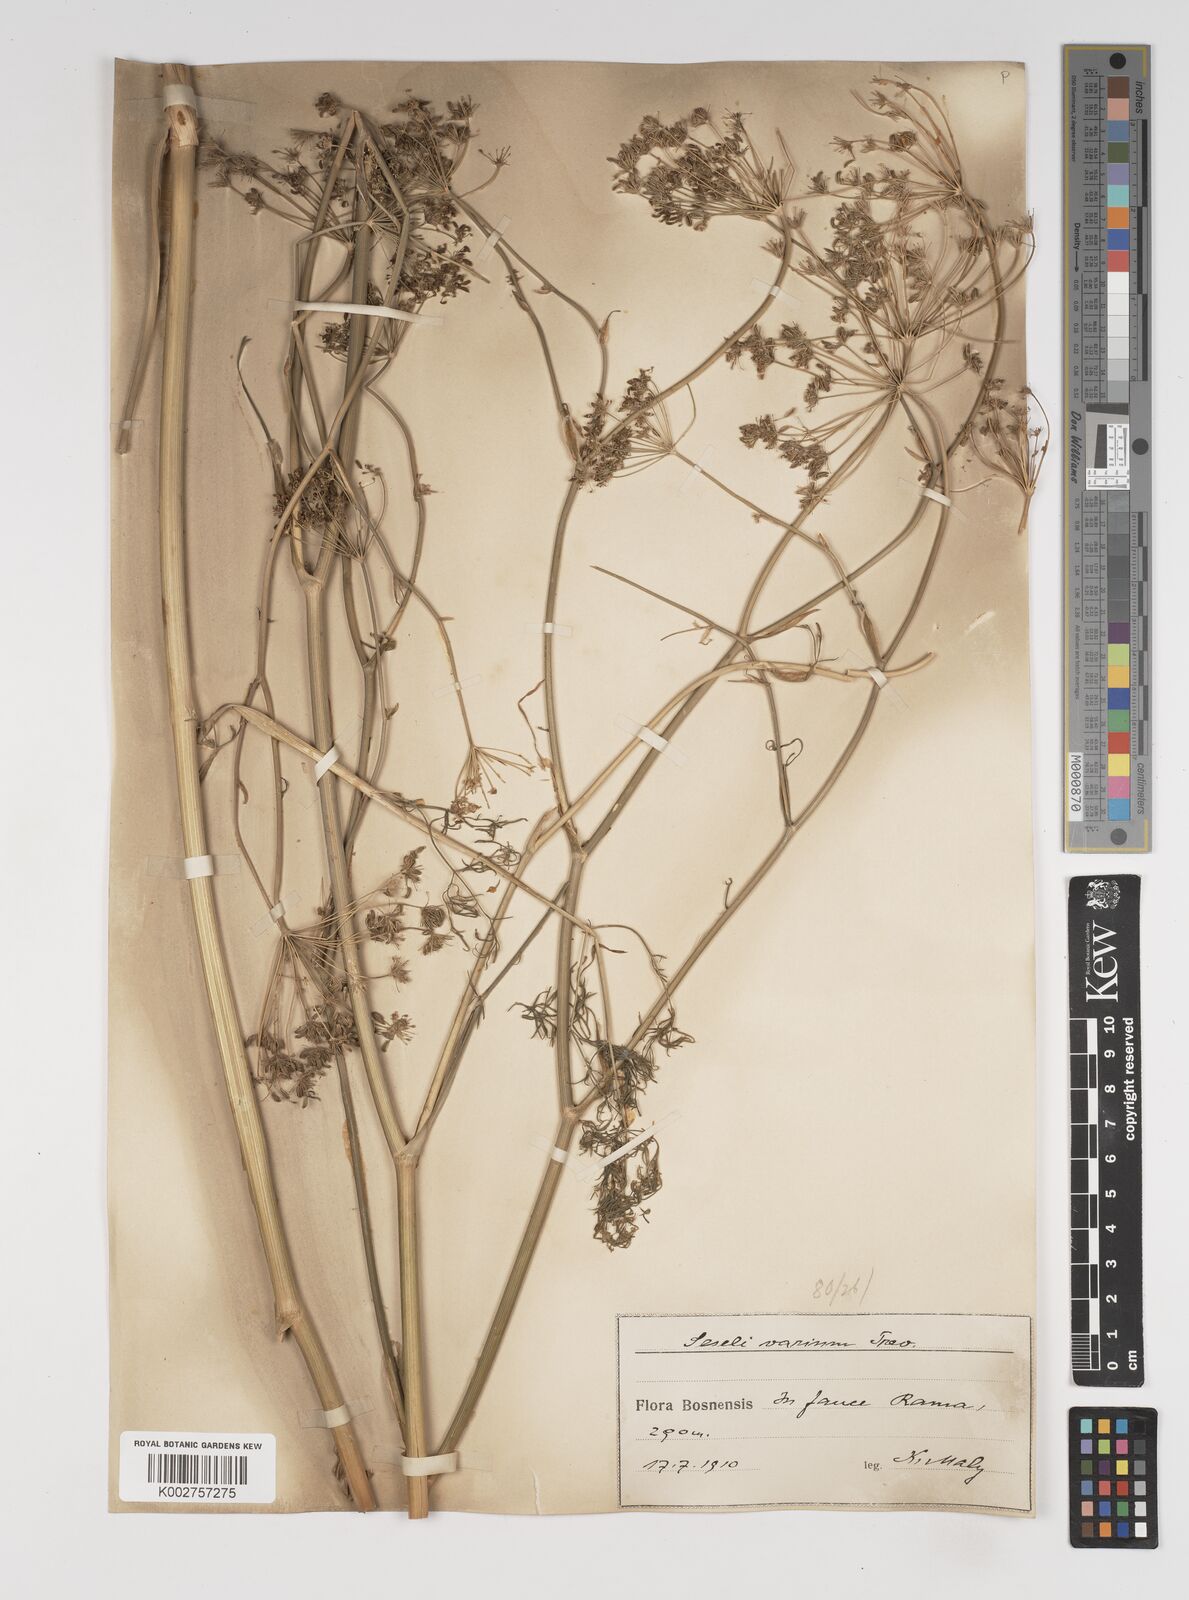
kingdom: Plantae
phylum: Tracheophyta
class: Magnoliopsida
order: Apiales
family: Apiaceae
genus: Seseli
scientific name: Seseli pallasii
